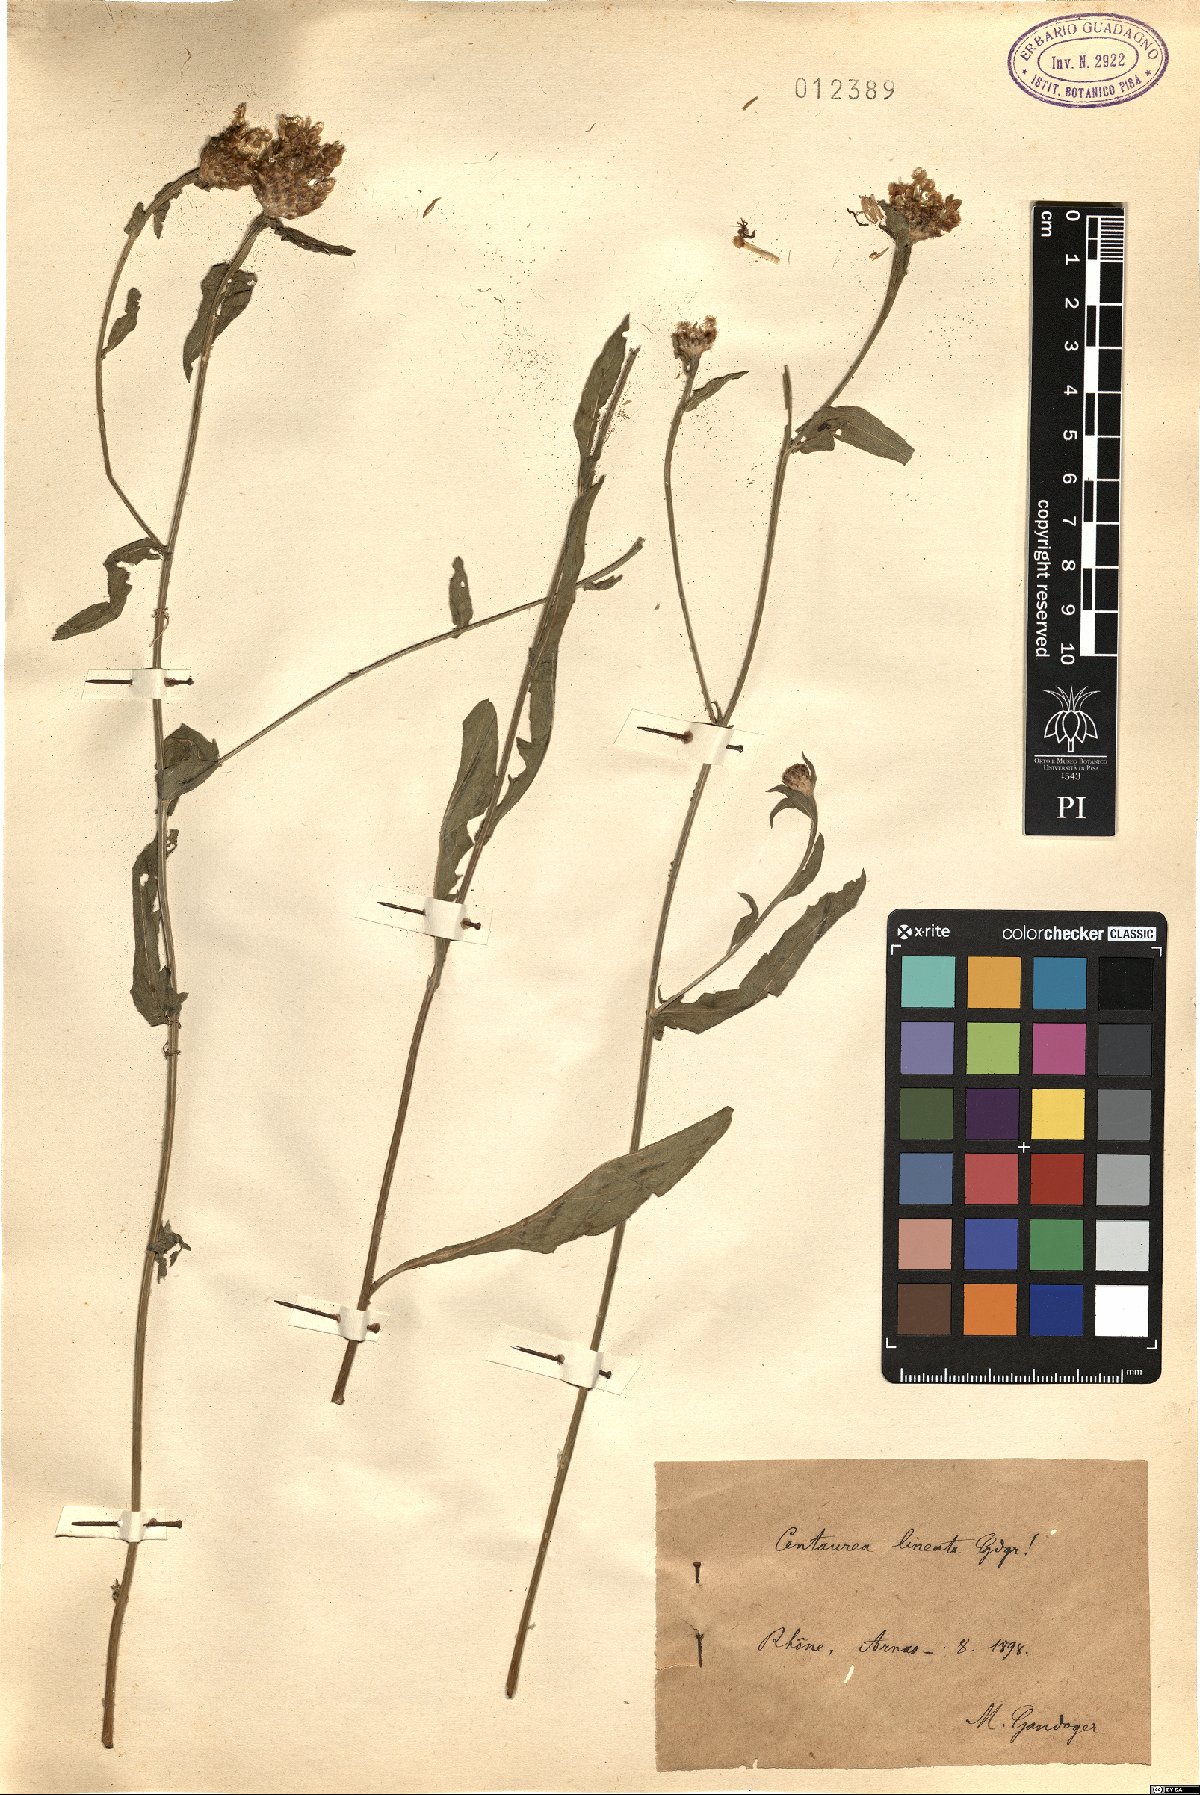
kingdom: Plantae
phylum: Tracheophyta
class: Magnoliopsida
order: Asterales
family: Asteraceae
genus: Centaurea
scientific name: Centaurea lineata
